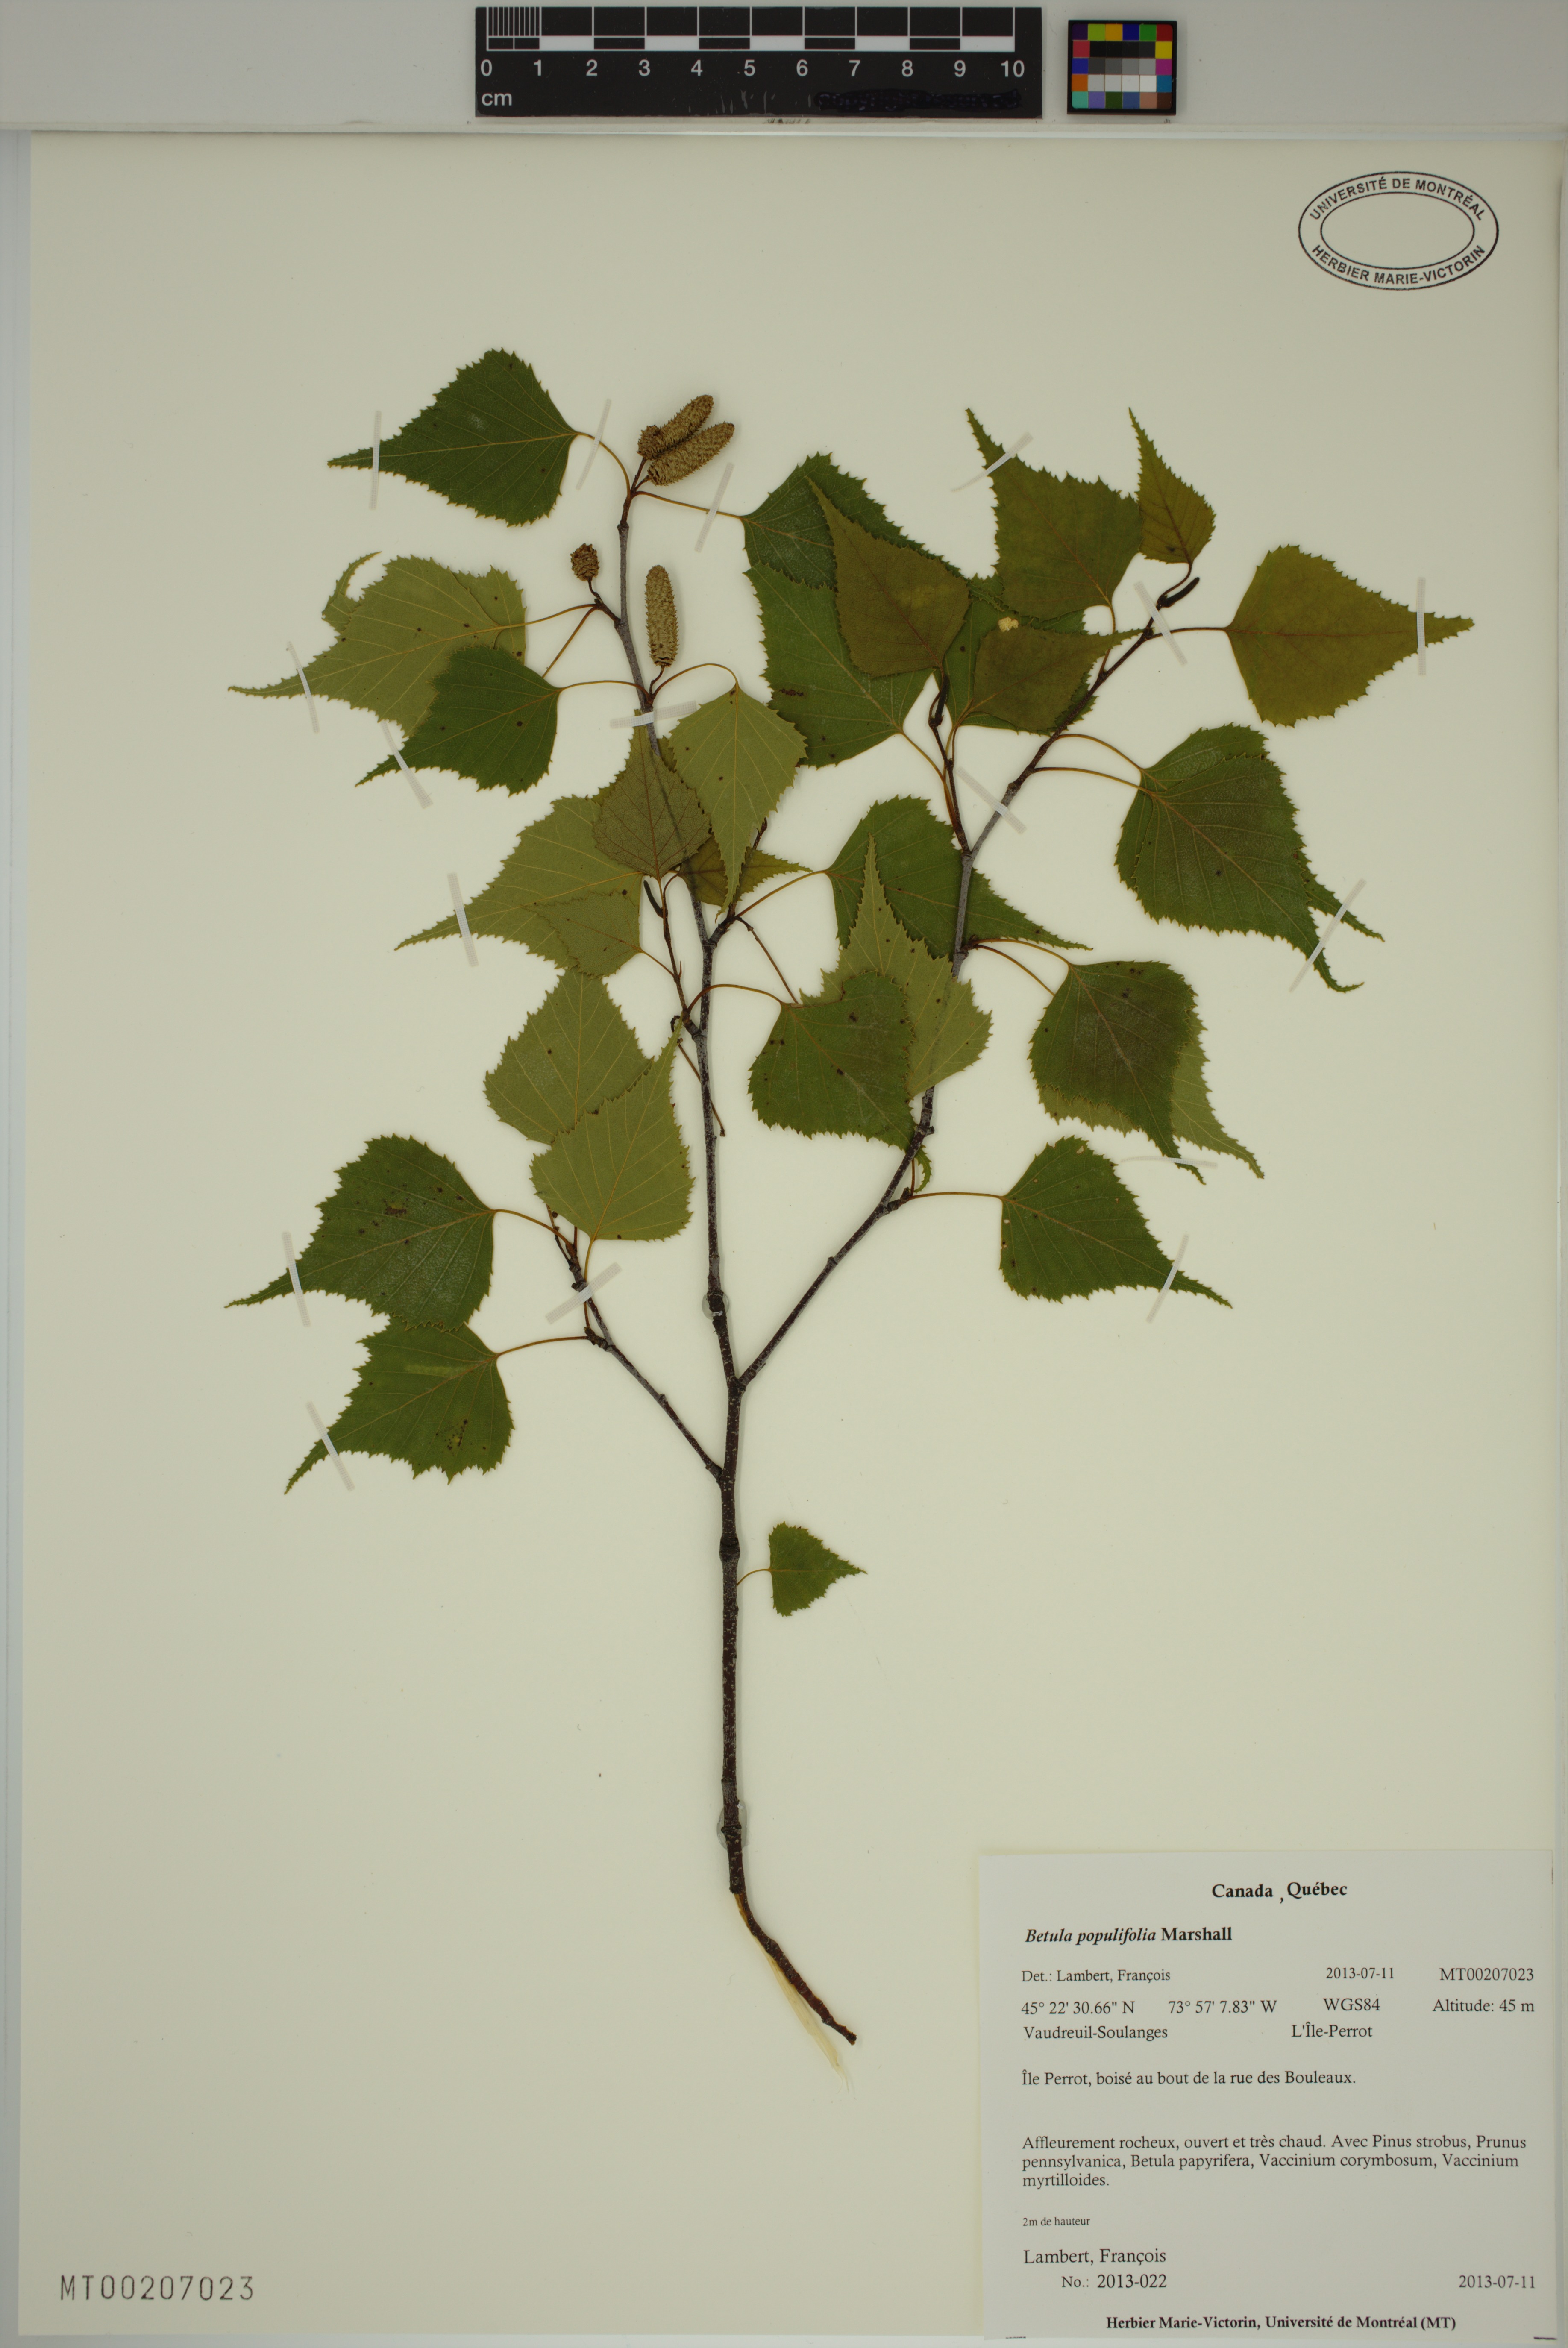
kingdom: Plantae
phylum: Tracheophyta
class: Magnoliopsida
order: Fagales
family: Betulaceae
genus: Betula
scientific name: Betula populifolia
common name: Fire birch
